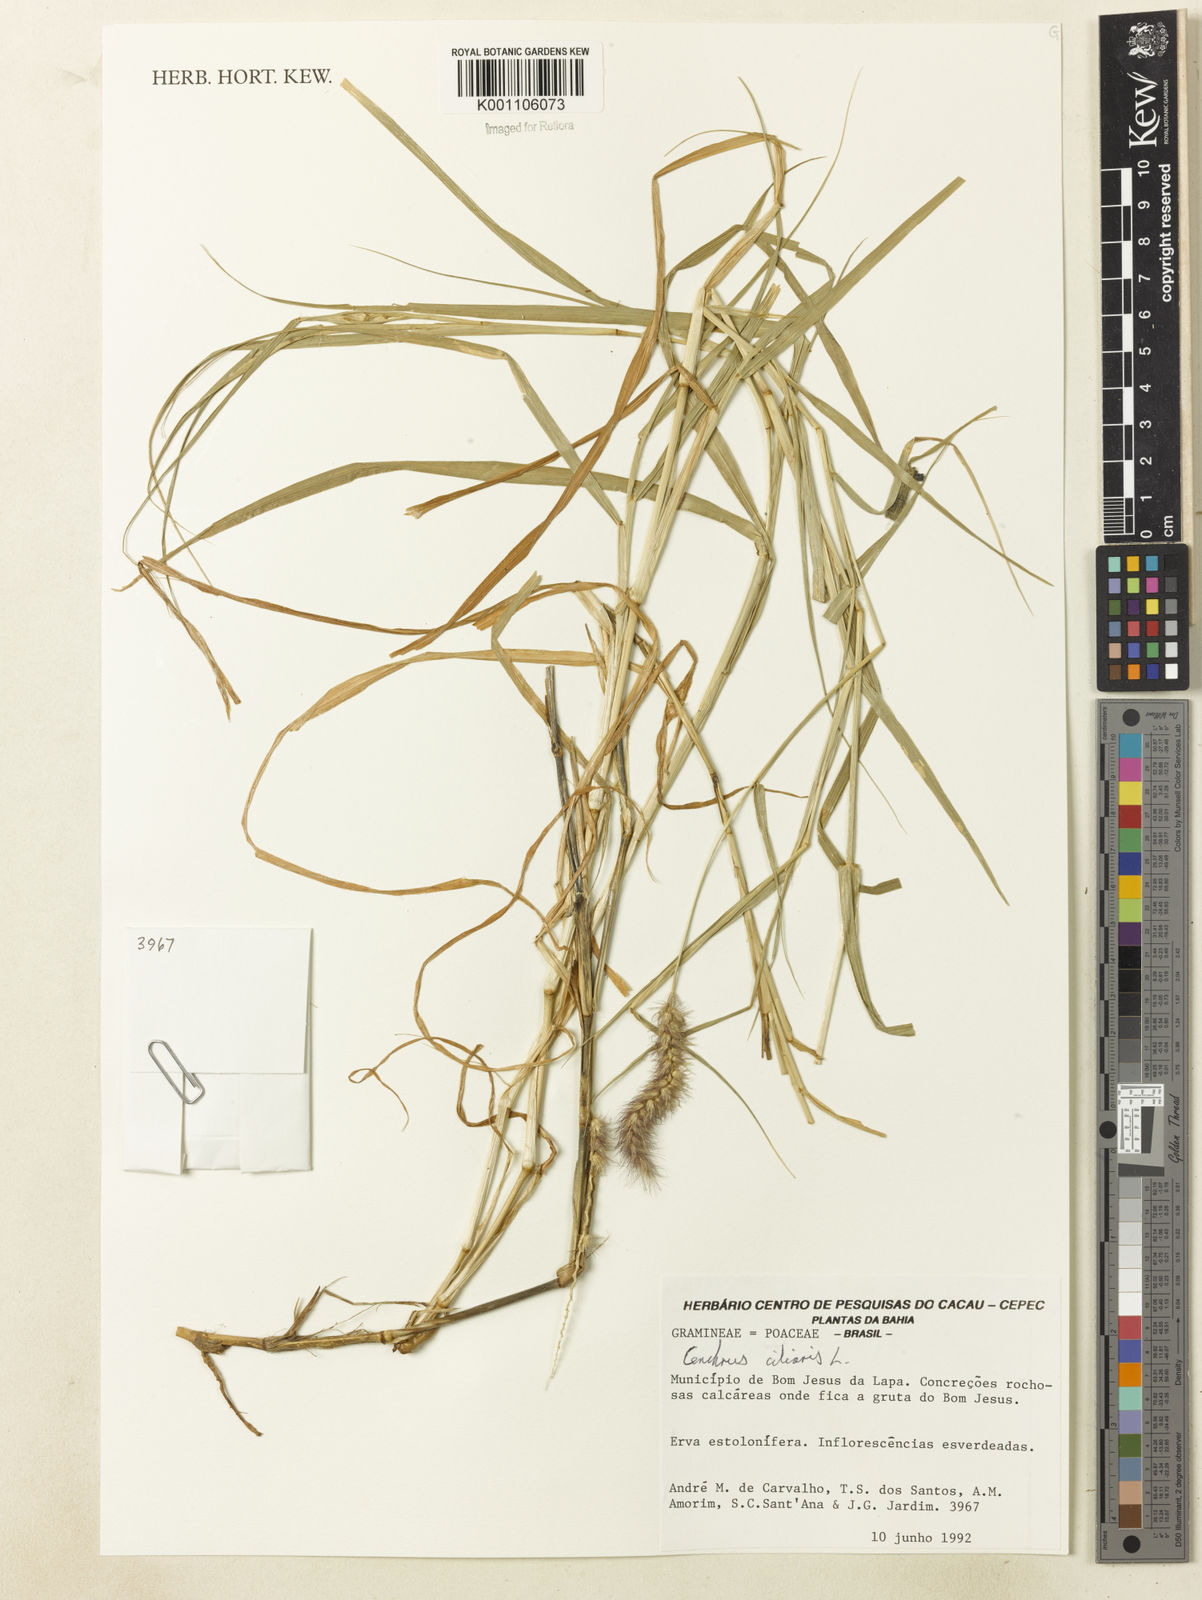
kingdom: Plantae
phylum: Tracheophyta
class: Liliopsida
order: Poales
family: Poaceae
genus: Cenchrus
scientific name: Cenchrus ciliaris
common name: Buffelgrass
